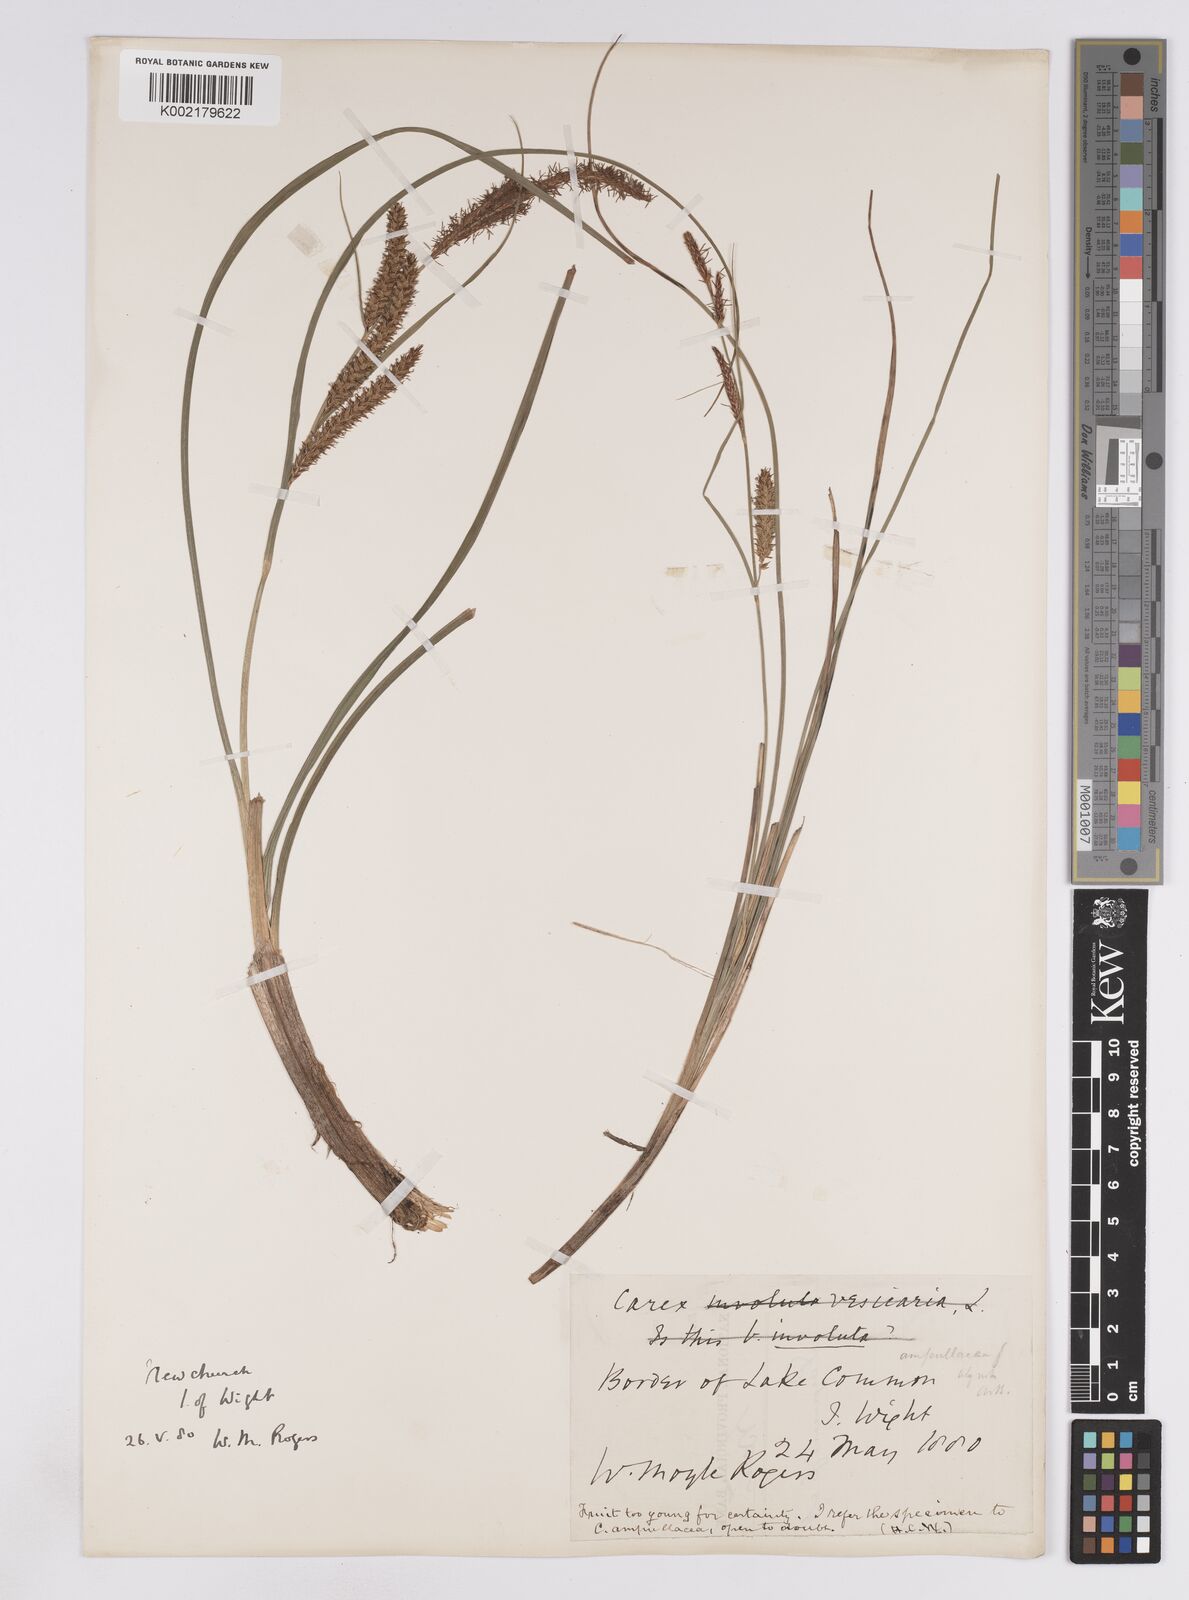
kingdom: Plantae
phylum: Tracheophyta
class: Liliopsida
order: Poales
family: Cyperaceae
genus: Carex
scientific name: Carex rostrata
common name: Bottle sedge
